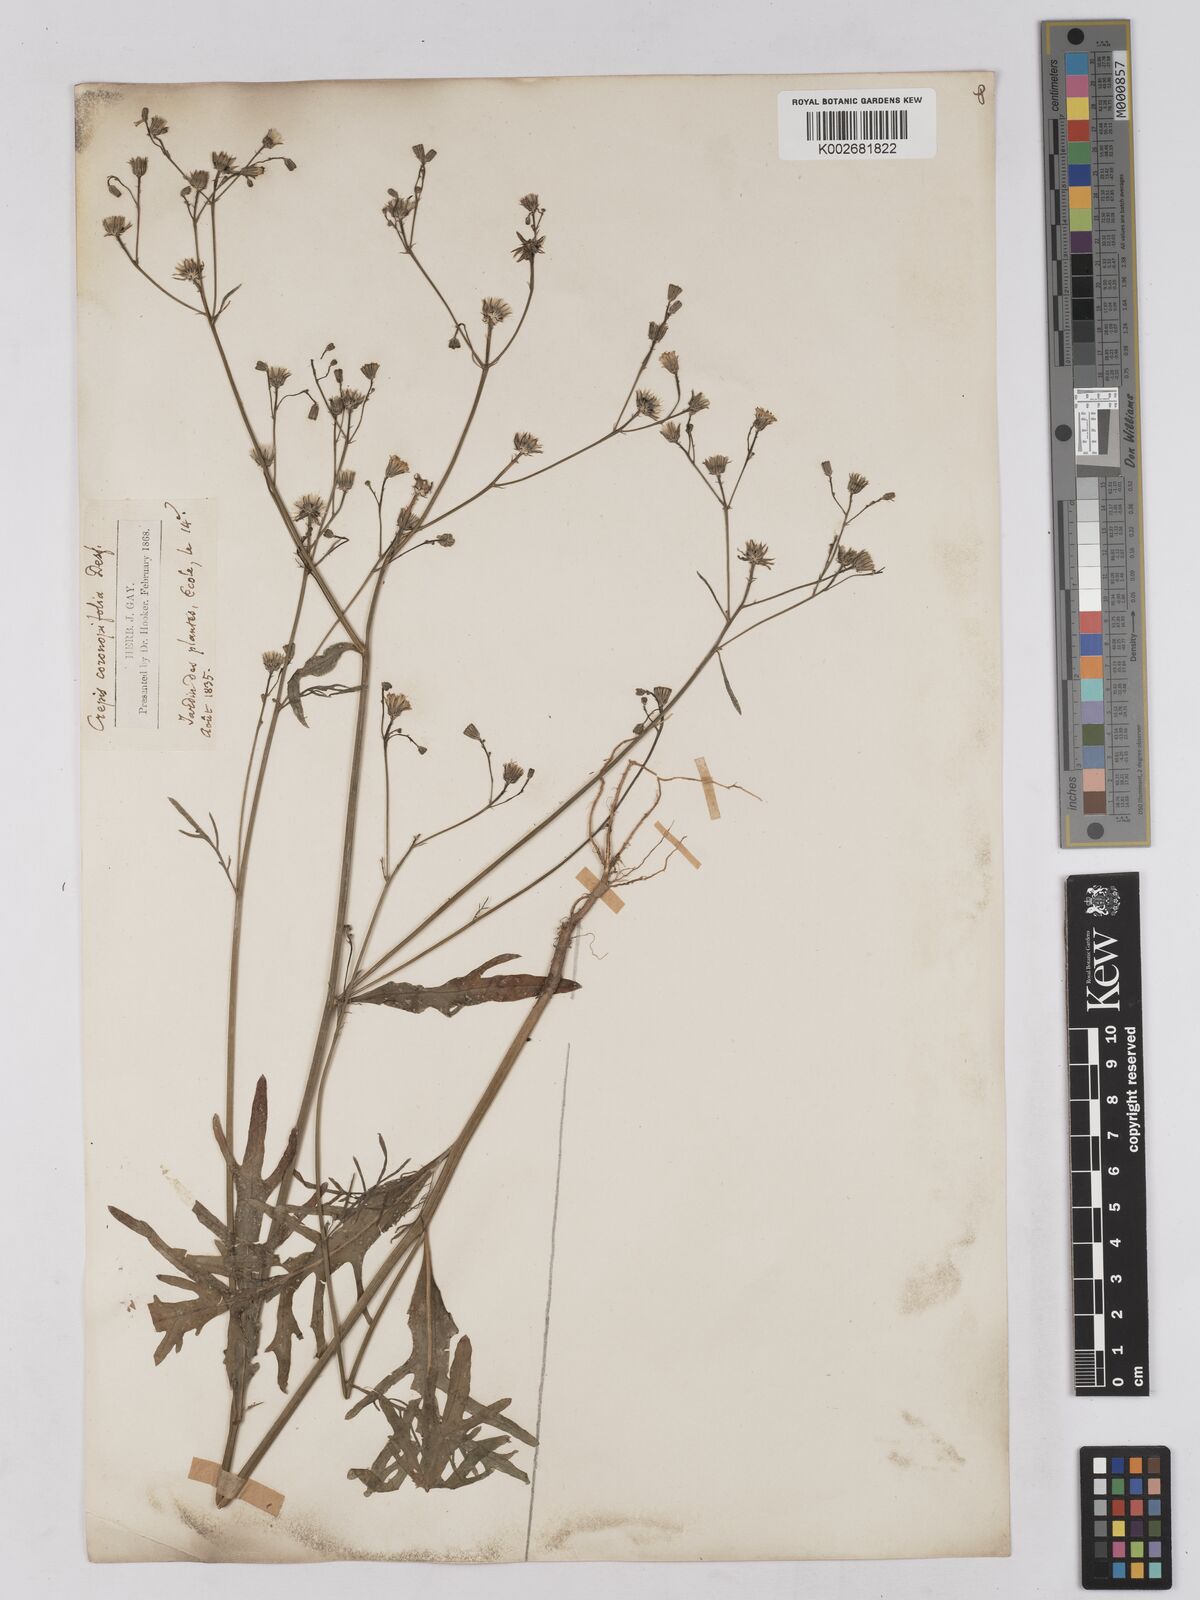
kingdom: Plantae
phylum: Tracheophyta
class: Magnoliopsida
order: Asterales
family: Asteraceae
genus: Tolpis
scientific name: Tolpis coronopifolia
